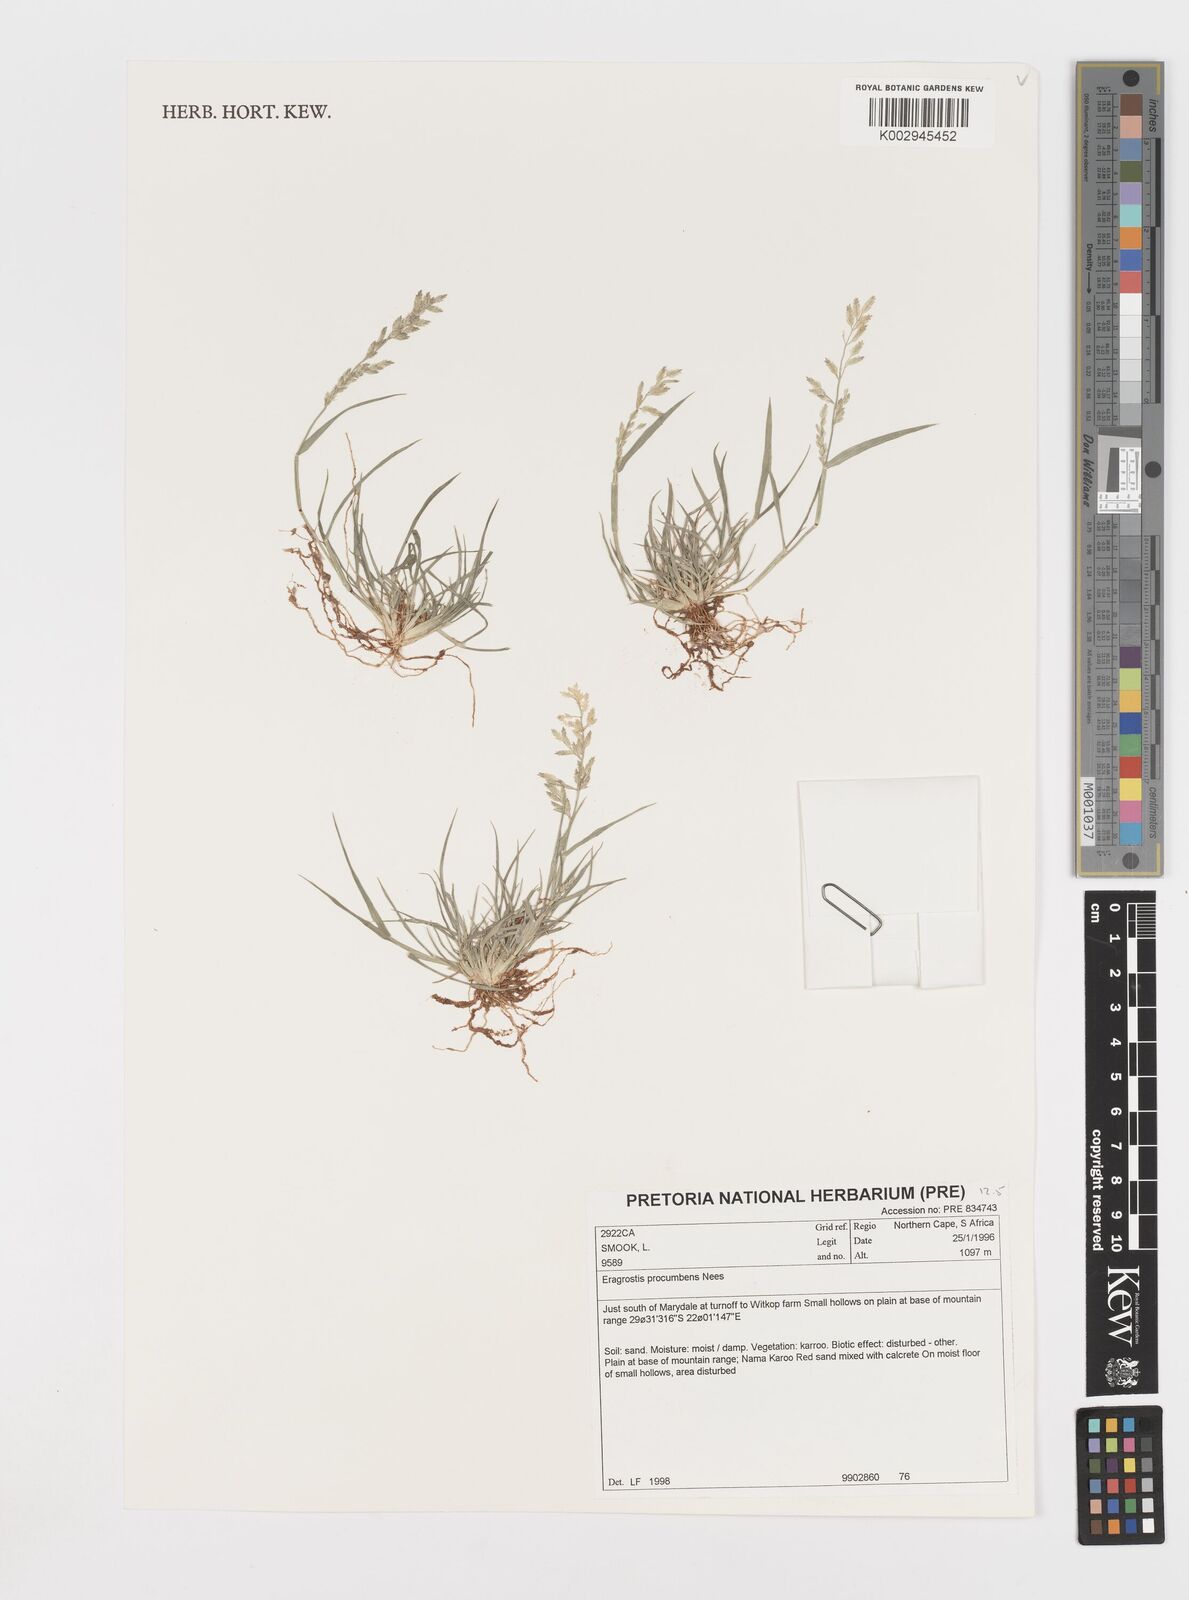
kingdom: Plantae
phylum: Tracheophyta
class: Liliopsida
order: Poales
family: Poaceae
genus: Eragrostis
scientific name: Eragrostis procumbens
